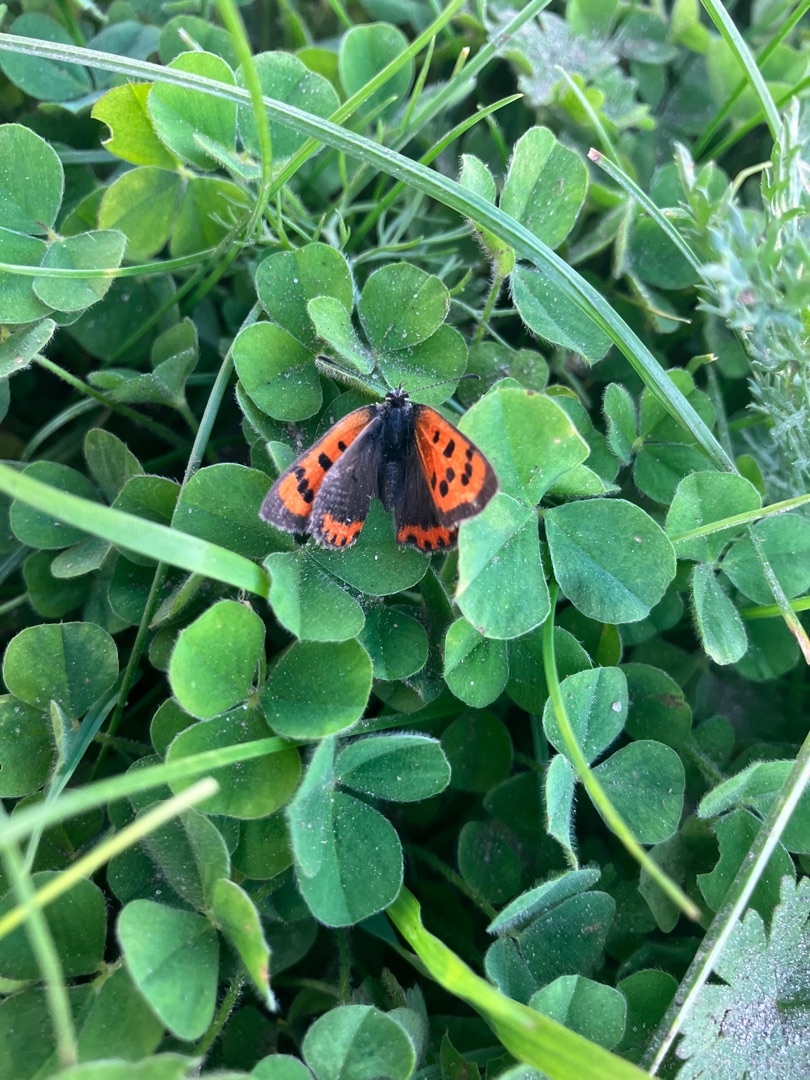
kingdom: Animalia
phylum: Arthropoda
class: Insecta
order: Lepidoptera
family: Lycaenidae
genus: Lycaena
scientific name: Lycaena phlaeas
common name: Lille ildfugl
